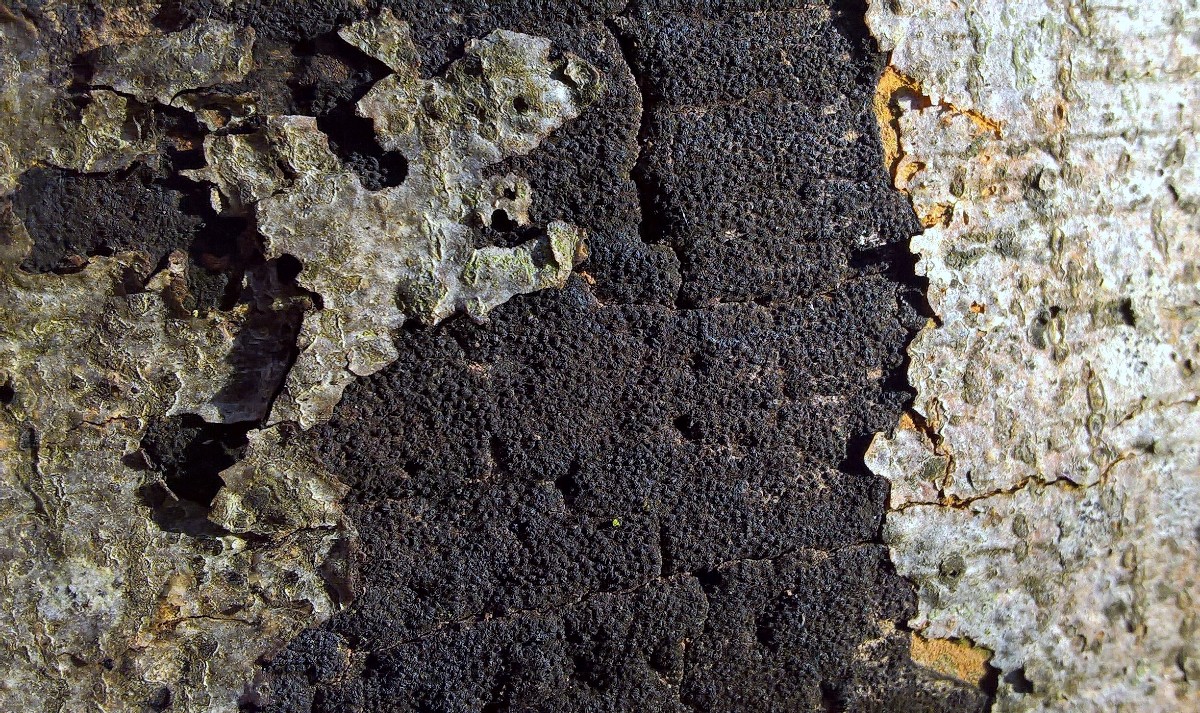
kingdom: Fungi
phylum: Ascomycota
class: Sordariomycetes
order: Xylariales
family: Diatrypaceae
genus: Eutypa
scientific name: Eutypa spinosa
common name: grov kulskorpe
